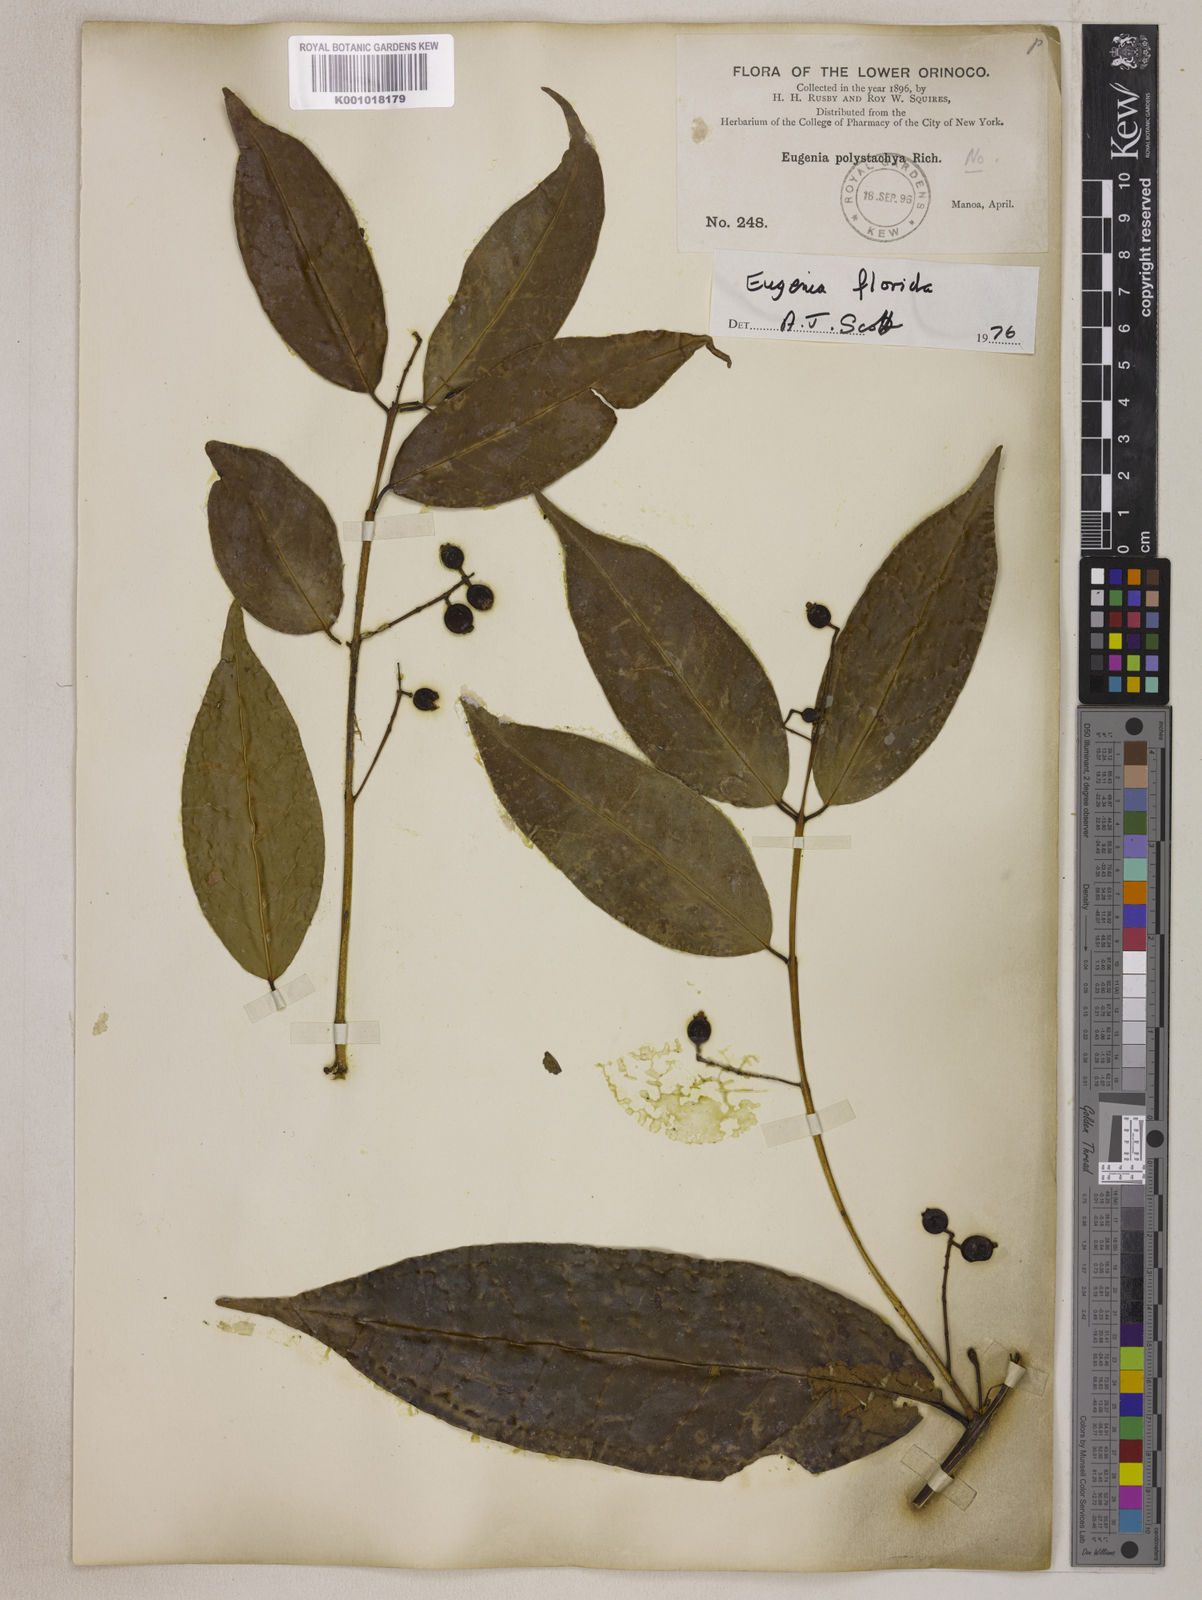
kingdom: Plantae
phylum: Tracheophyta
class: Magnoliopsida
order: Myrtales
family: Myrtaceae
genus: Eugenia
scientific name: Eugenia florida
